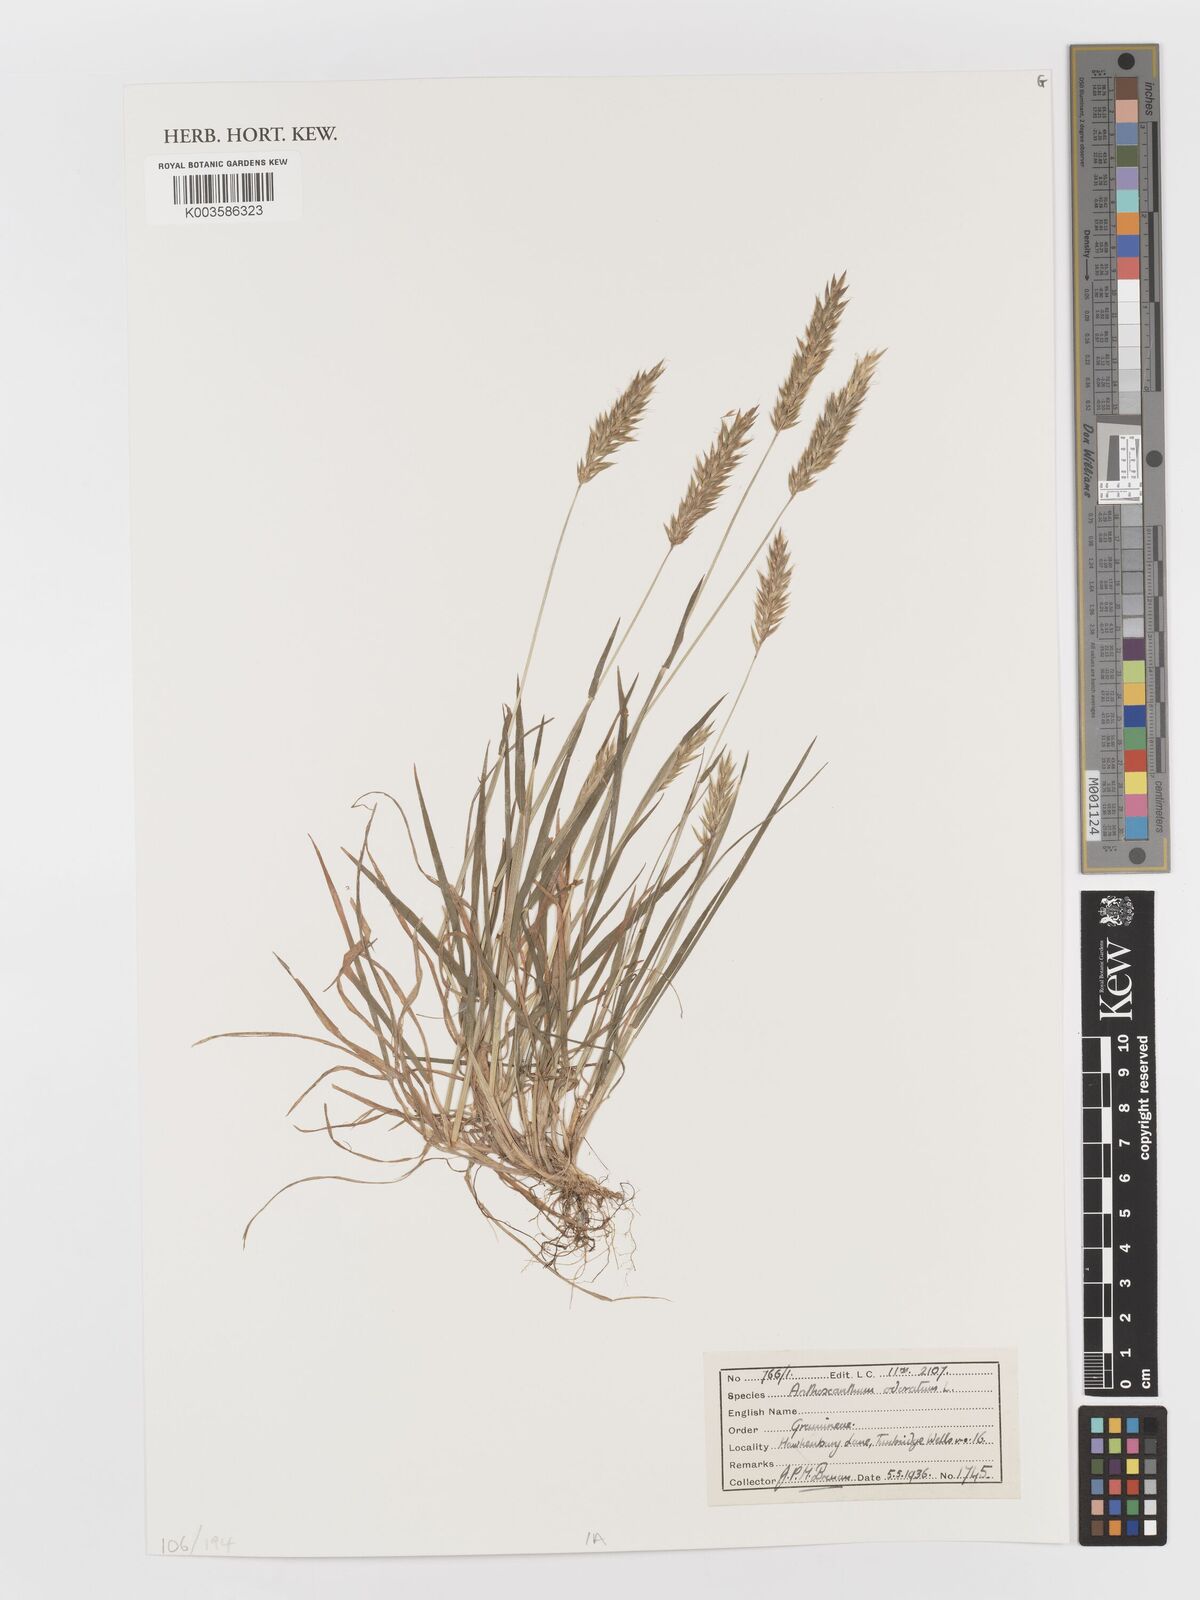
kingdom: Plantae
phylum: Tracheophyta
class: Liliopsida
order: Poales
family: Poaceae
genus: Anthoxanthum
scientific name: Anthoxanthum odoratum
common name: Sweet vernalgrass
